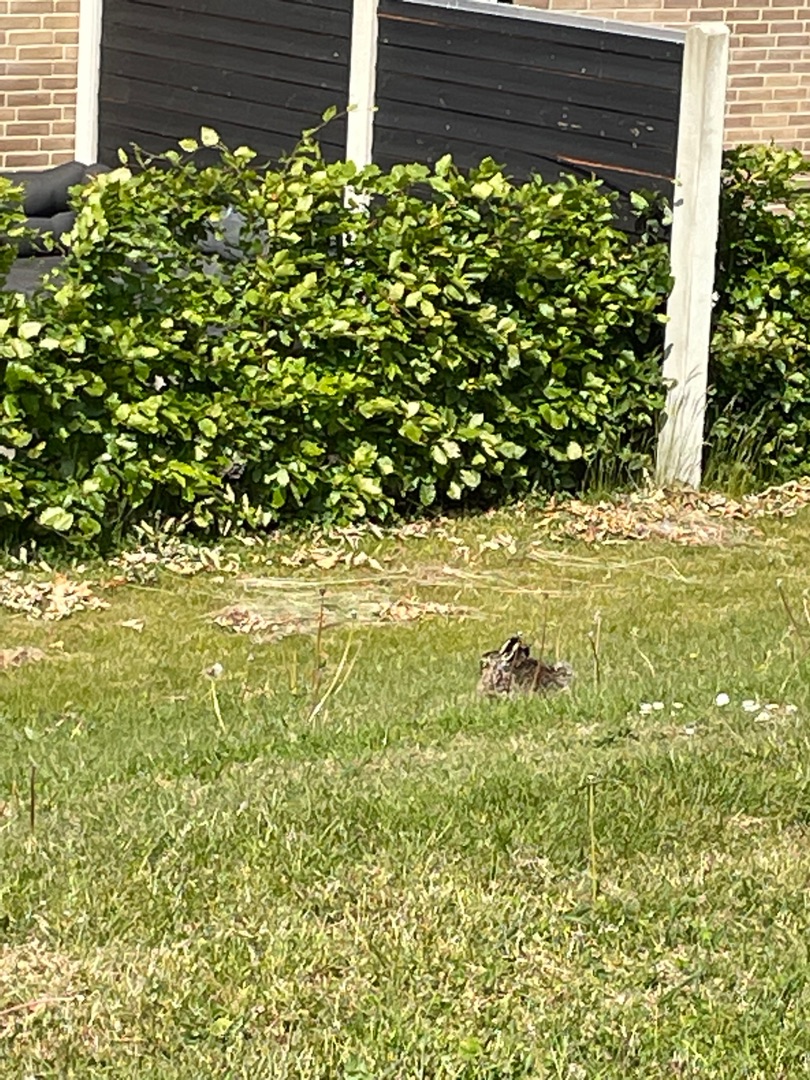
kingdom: Animalia
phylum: Chordata
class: Mammalia
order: Lagomorpha
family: Leporidae
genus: Lepus
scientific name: Lepus europaeus
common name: Hare
